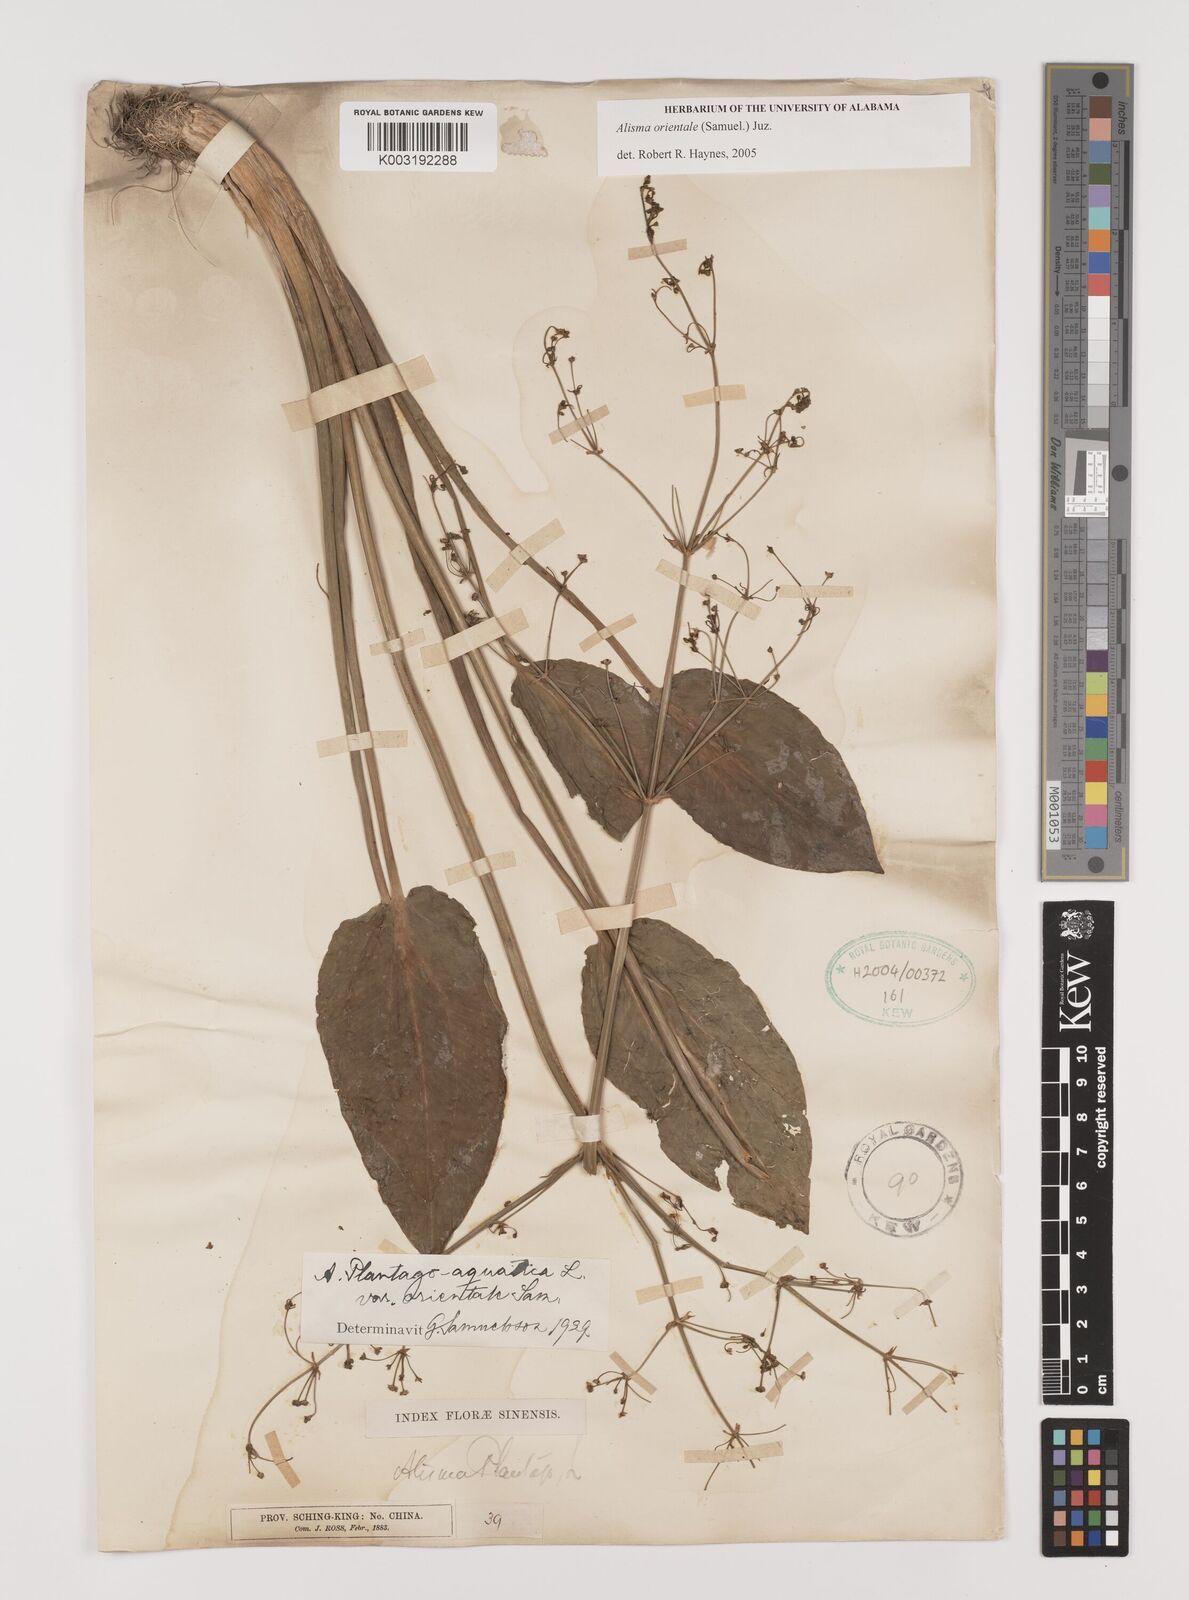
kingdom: Plantae
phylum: Tracheophyta
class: Liliopsida
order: Alismatales
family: Alismataceae
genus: Alisma
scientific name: Alisma plantago-aquatica
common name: Water-plantain
